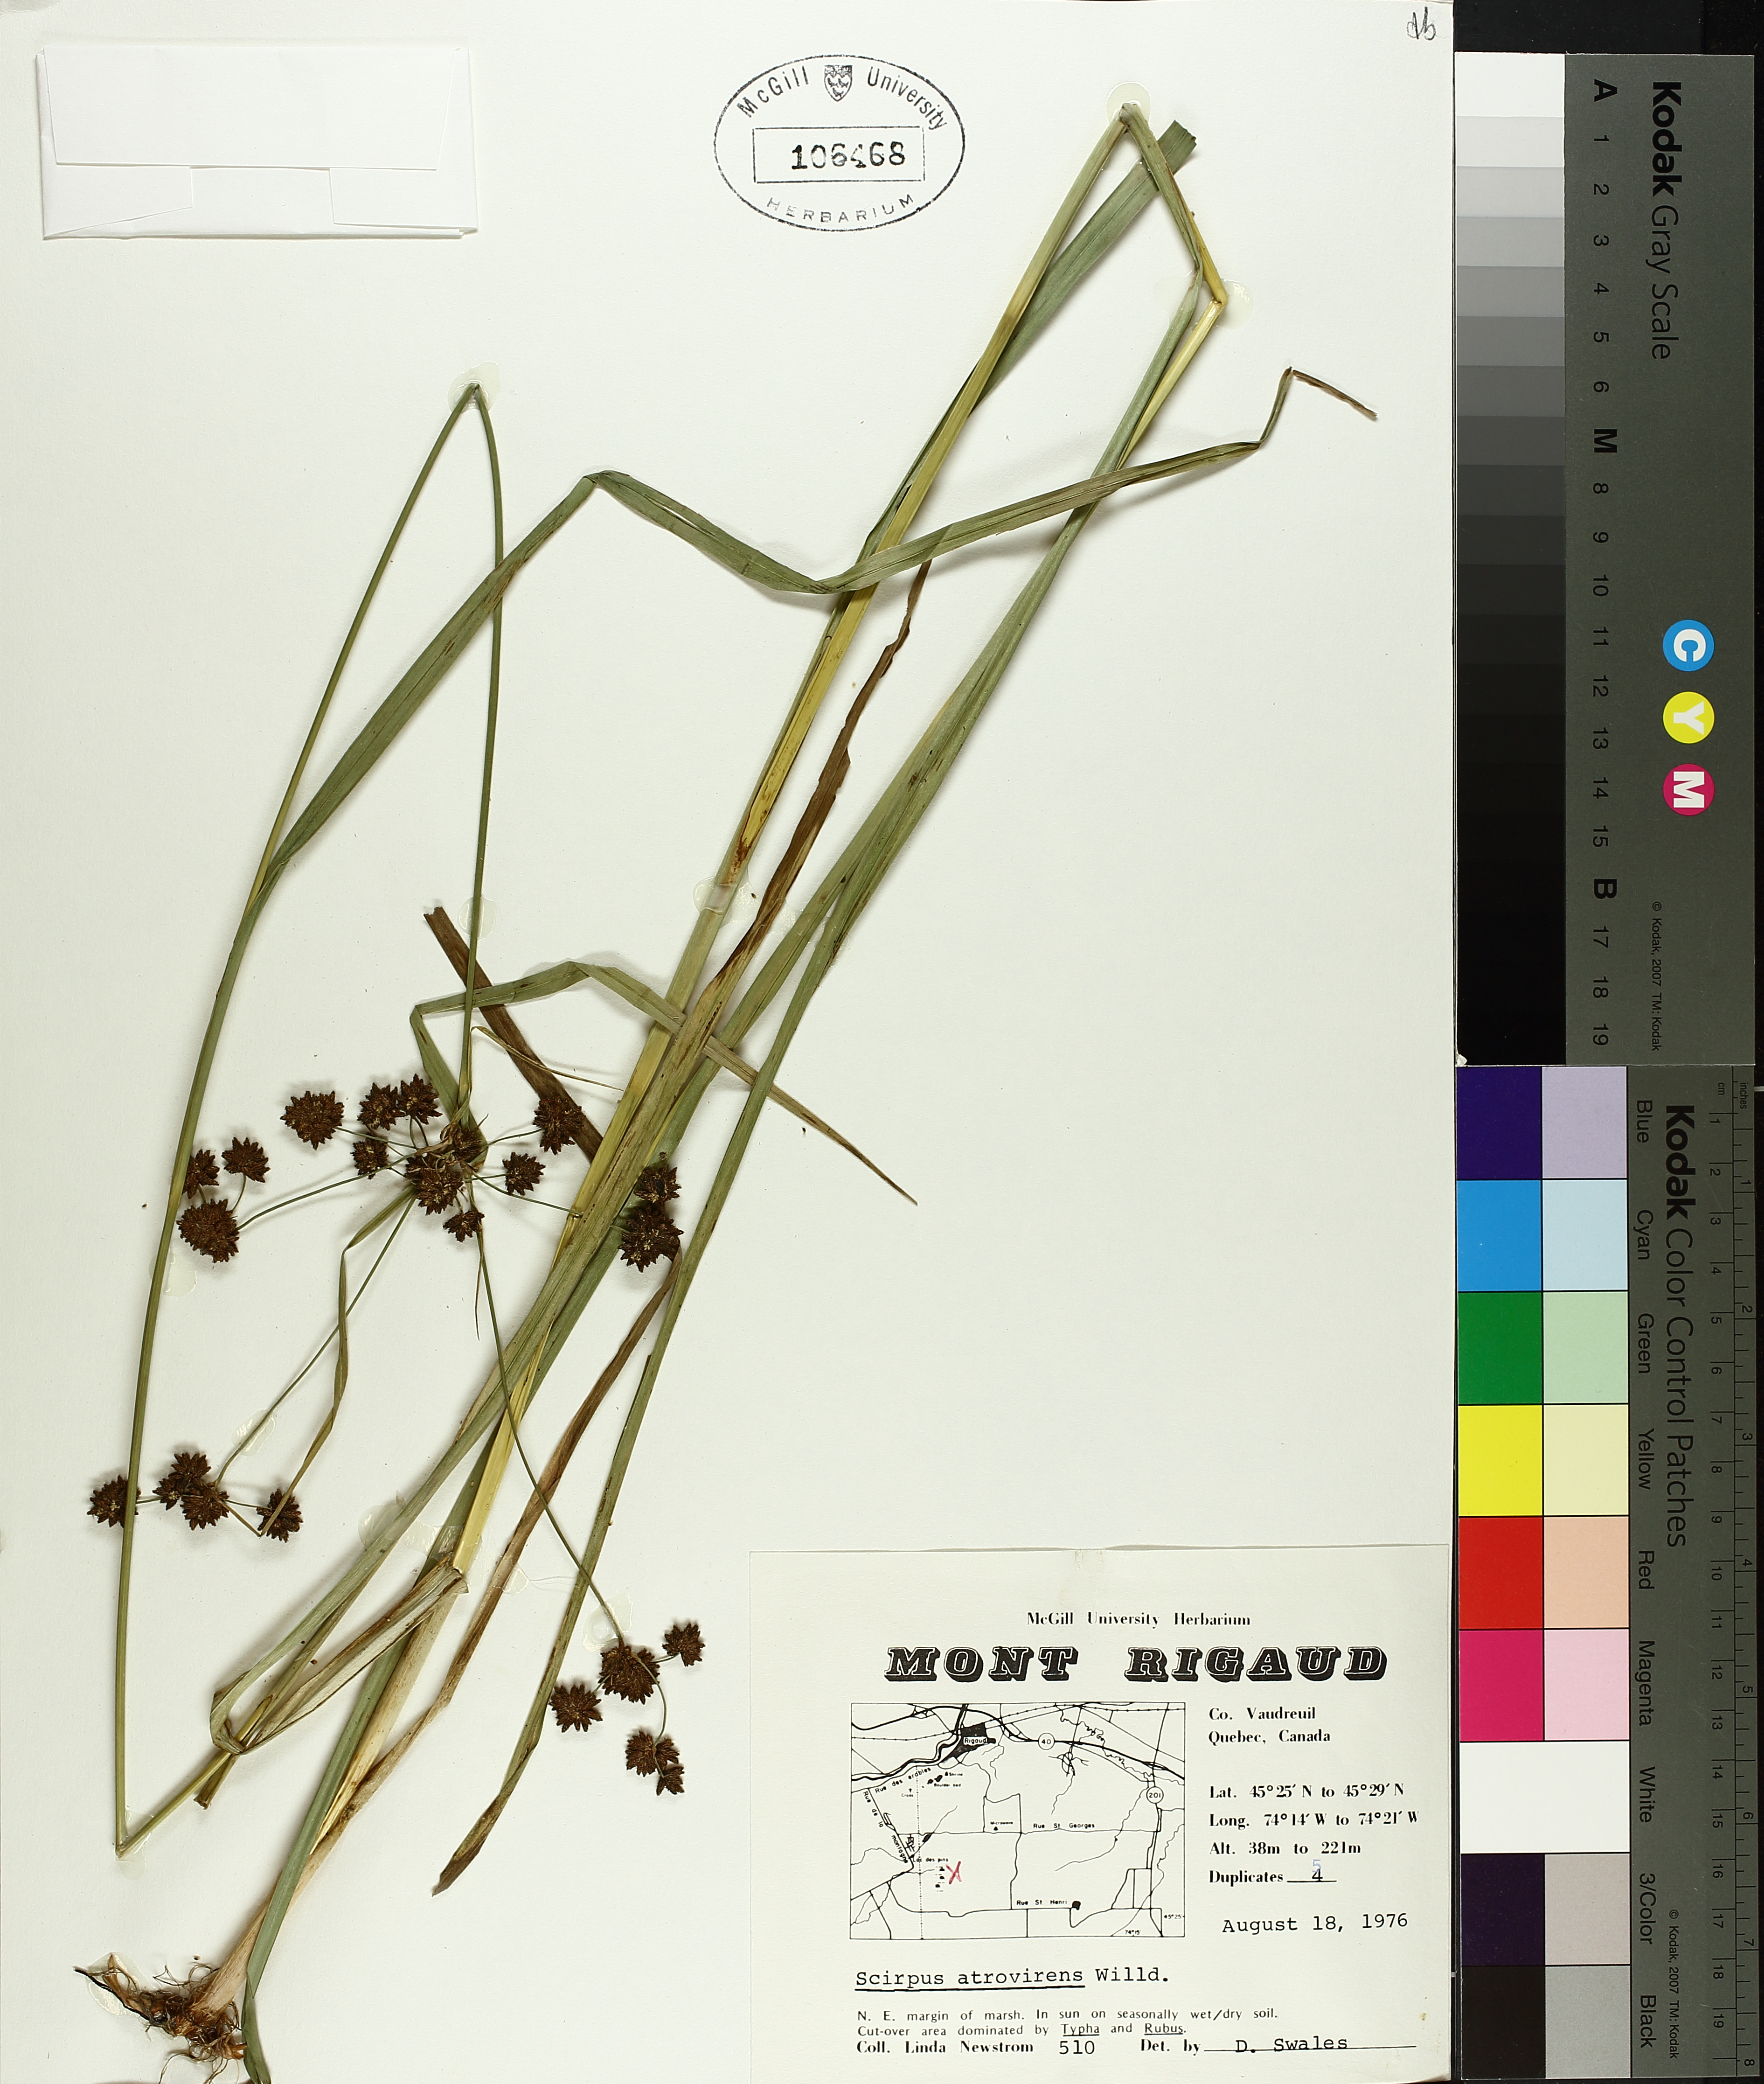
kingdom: Plantae
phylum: Tracheophyta
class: Liliopsida
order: Poales
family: Cyperaceae
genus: Scirpus
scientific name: Scirpus atrovirens
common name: Black bulrush
